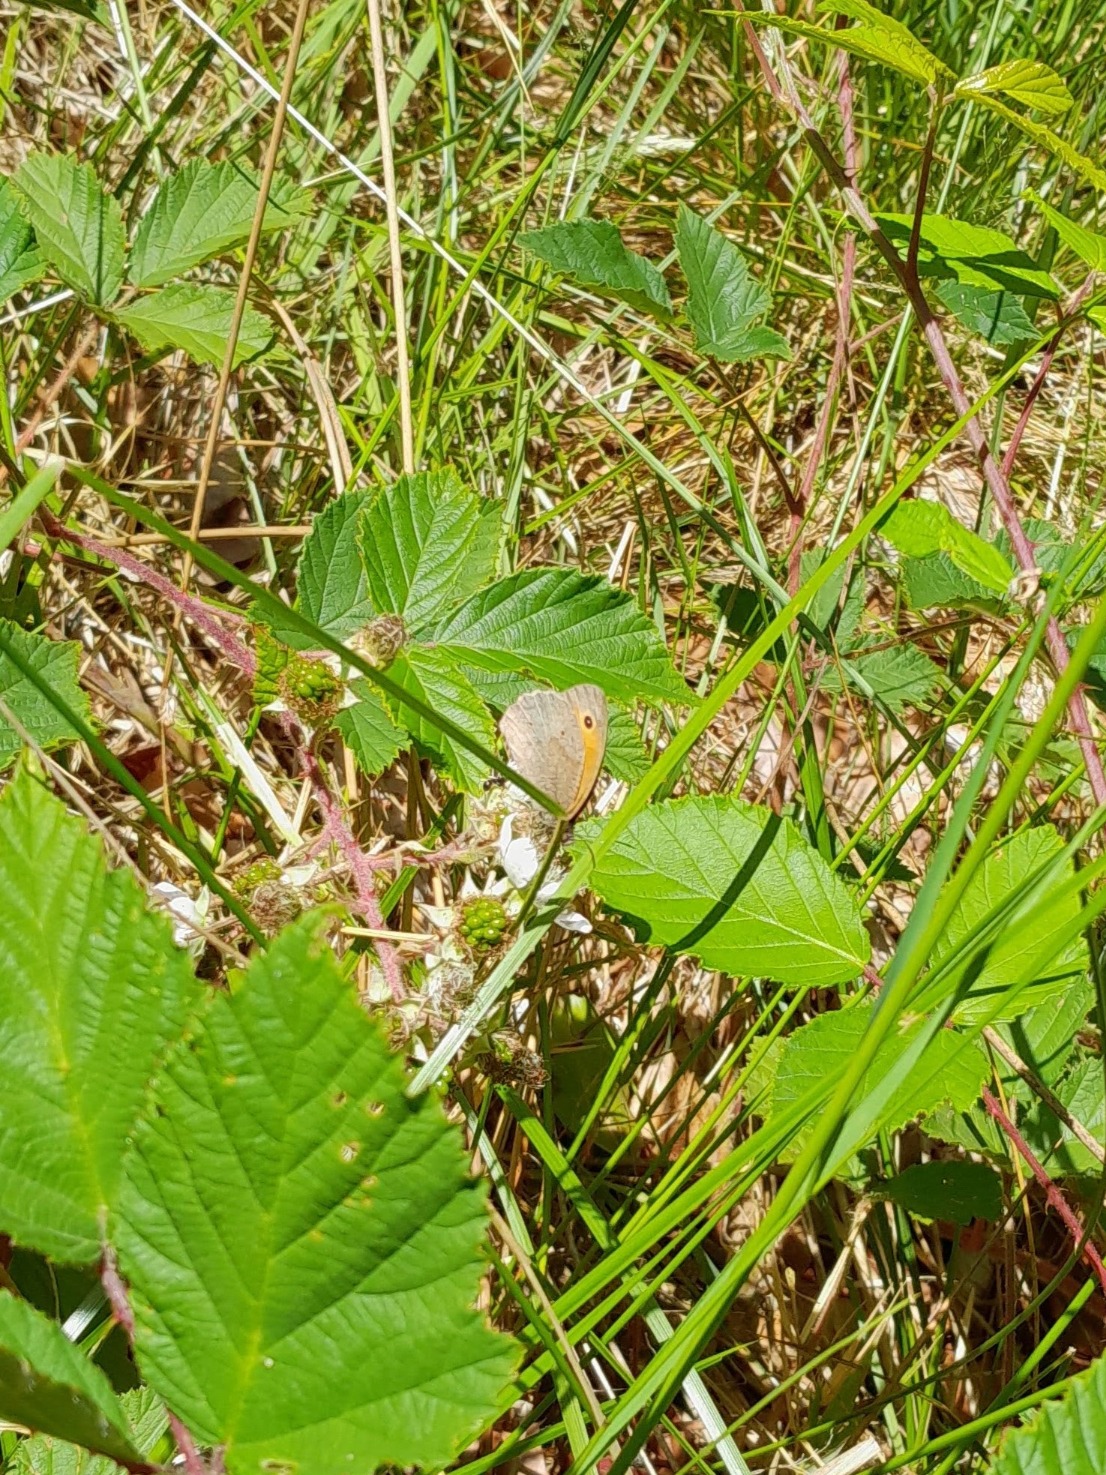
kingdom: Animalia
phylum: Arthropoda
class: Insecta
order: Lepidoptera
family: Nymphalidae
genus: Maniola
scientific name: Maniola jurtina
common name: Græsrandøje
